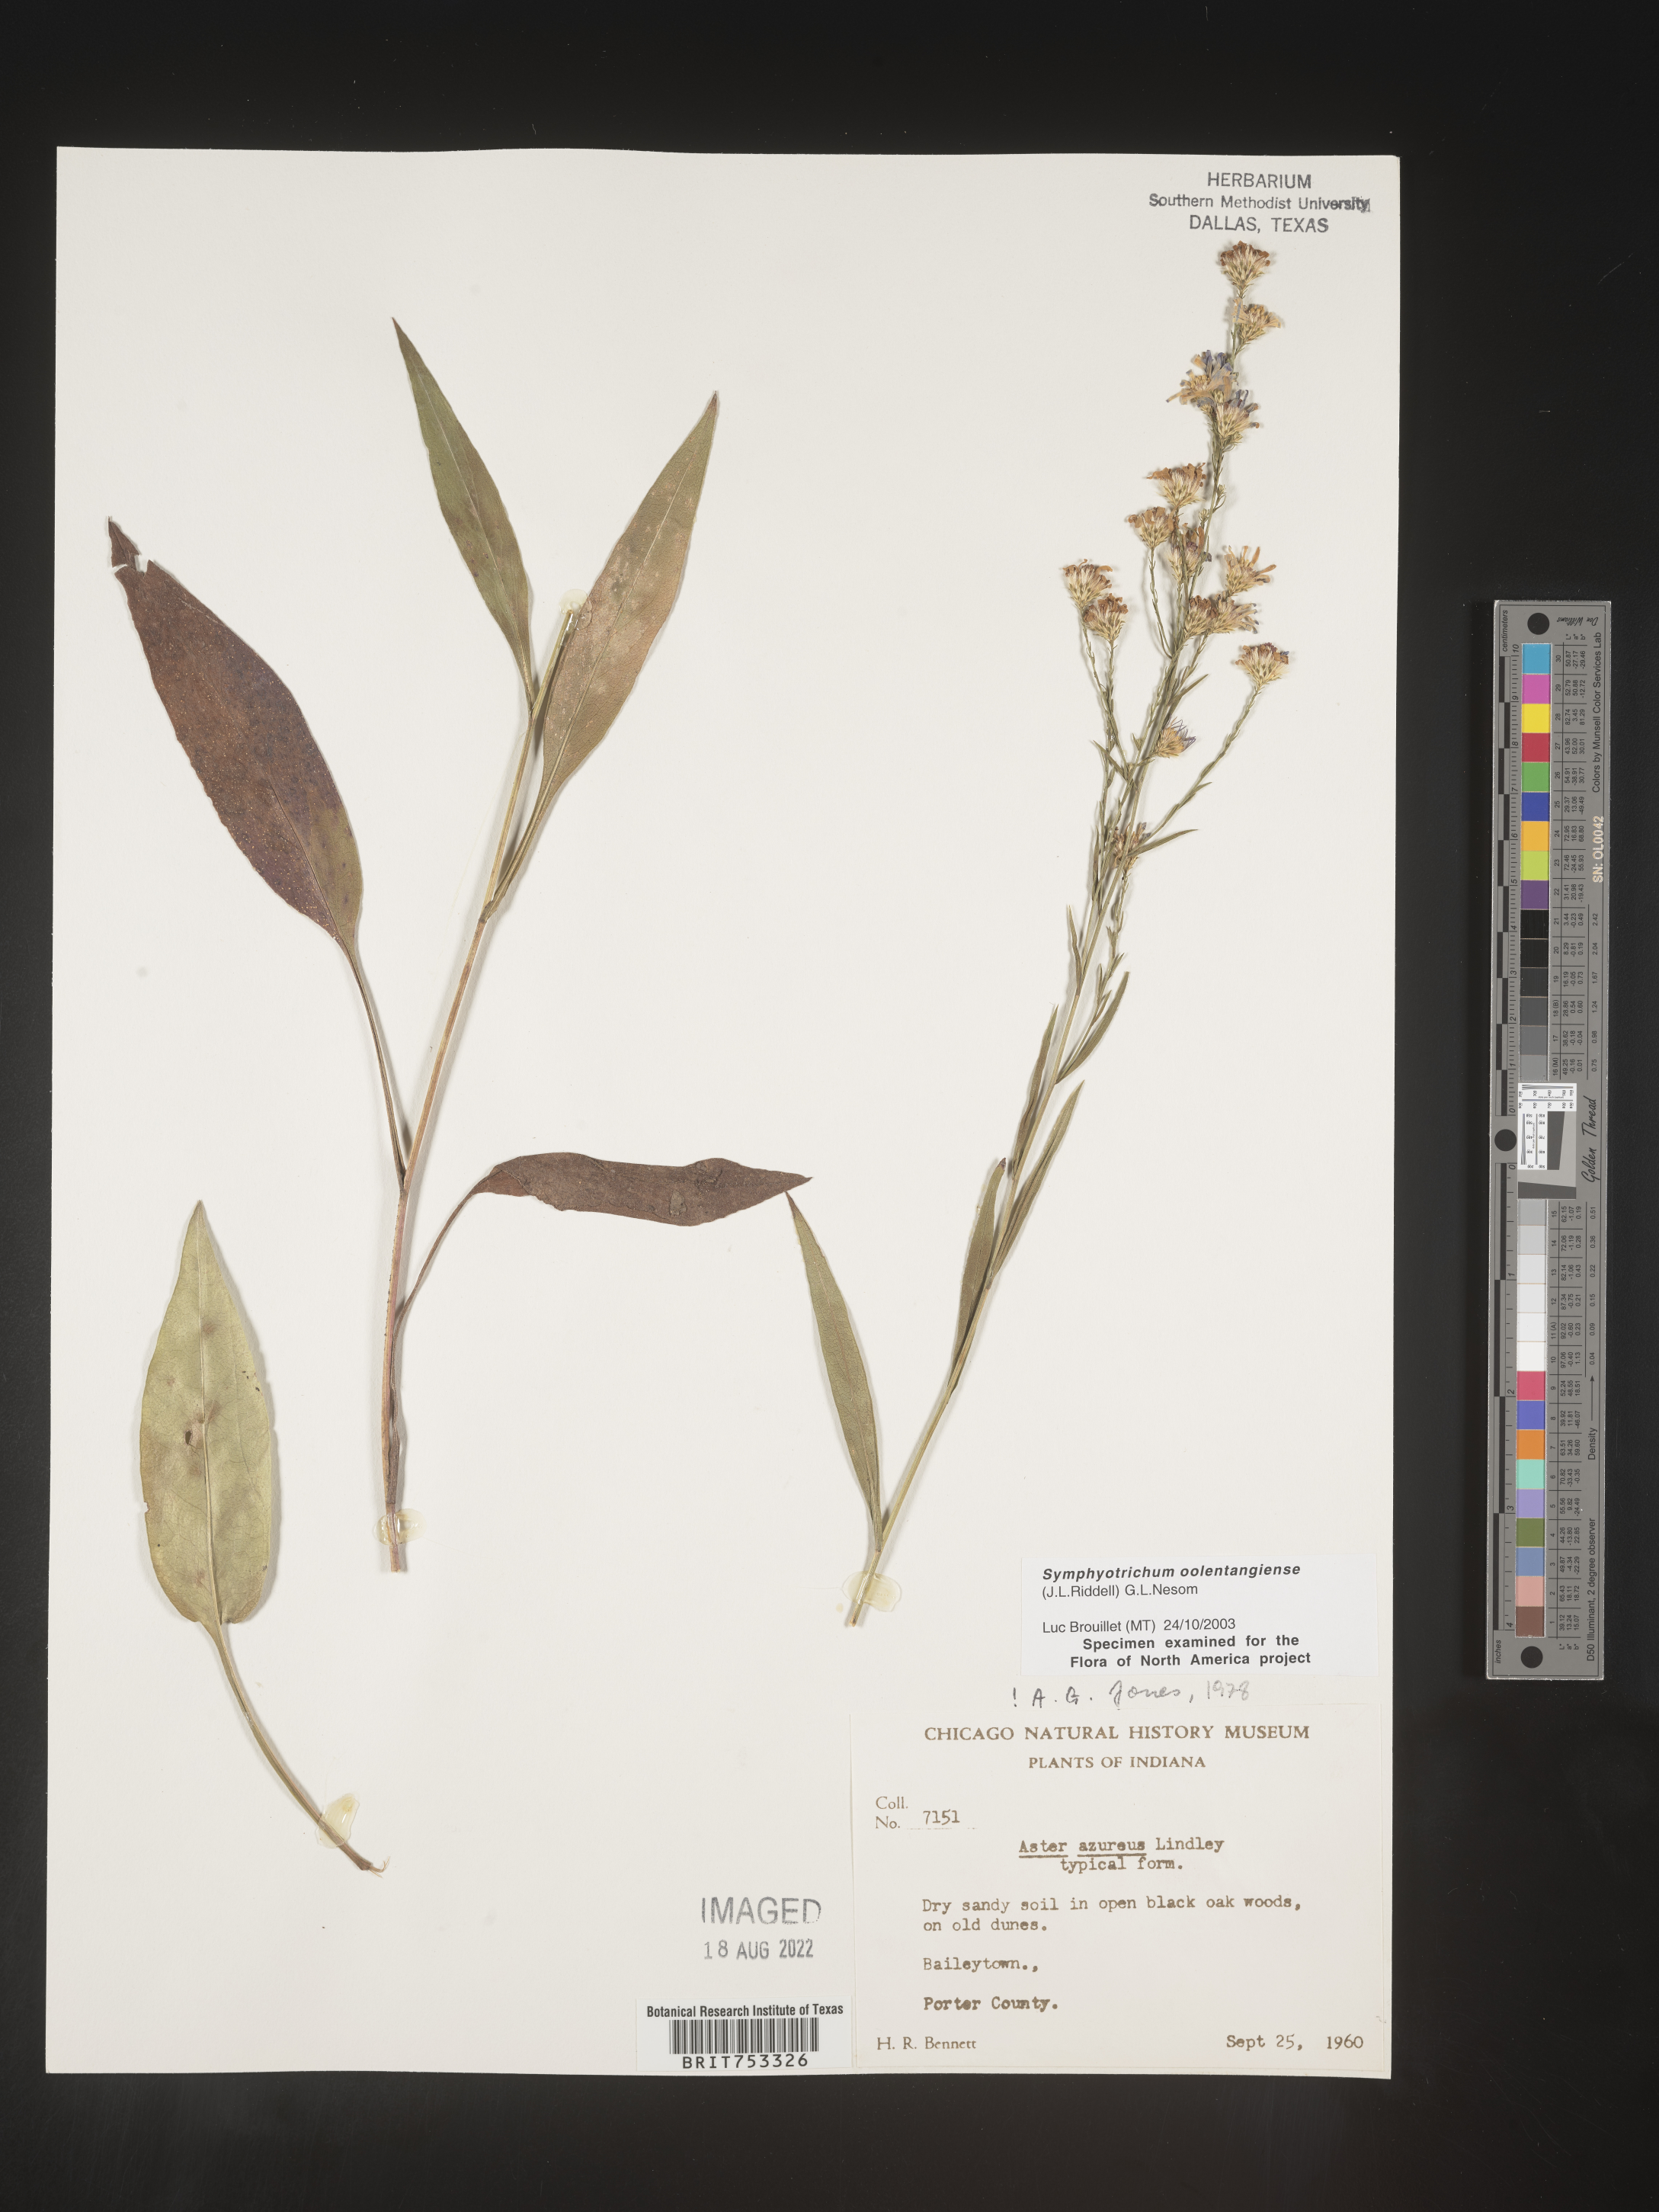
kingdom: Plantae
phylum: Tracheophyta
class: Magnoliopsida
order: Asterales
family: Asteraceae
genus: Symphyotrichum
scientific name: Symphyotrichum oolentangiense
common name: Azure aster
